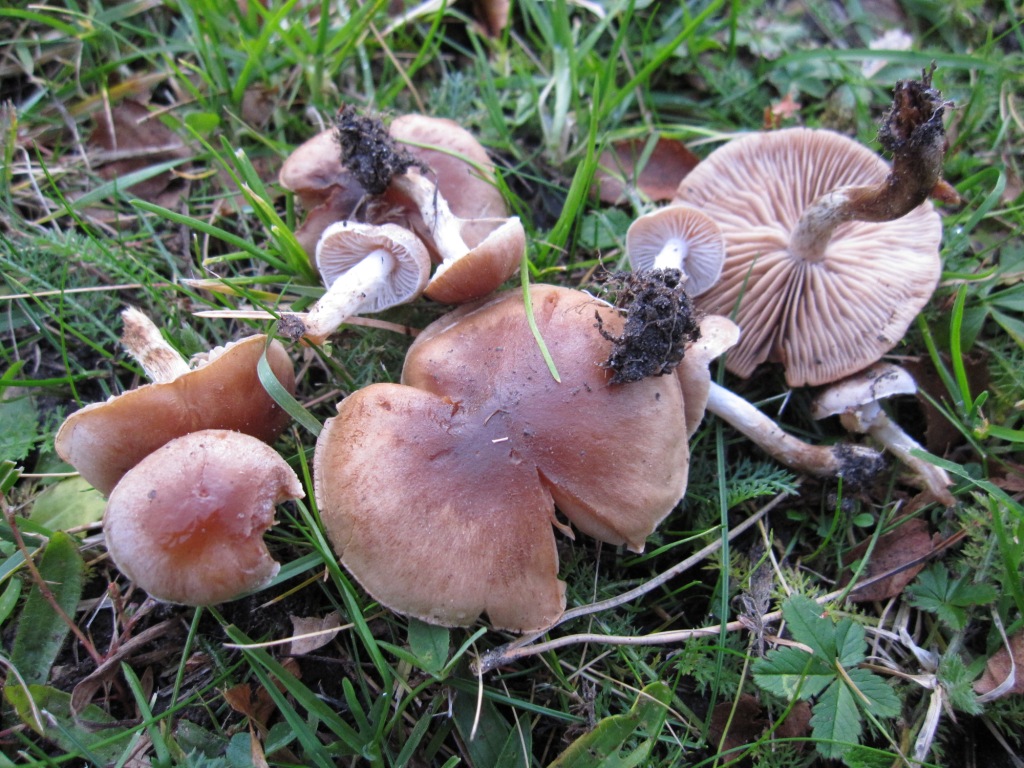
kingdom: Fungi
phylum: Basidiomycota
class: Agaricomycetes
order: Agaricales
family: Hymenogastraceae
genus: Hebeloma
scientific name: Hebeloma mesophaeum
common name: lerbrun tåreblad
